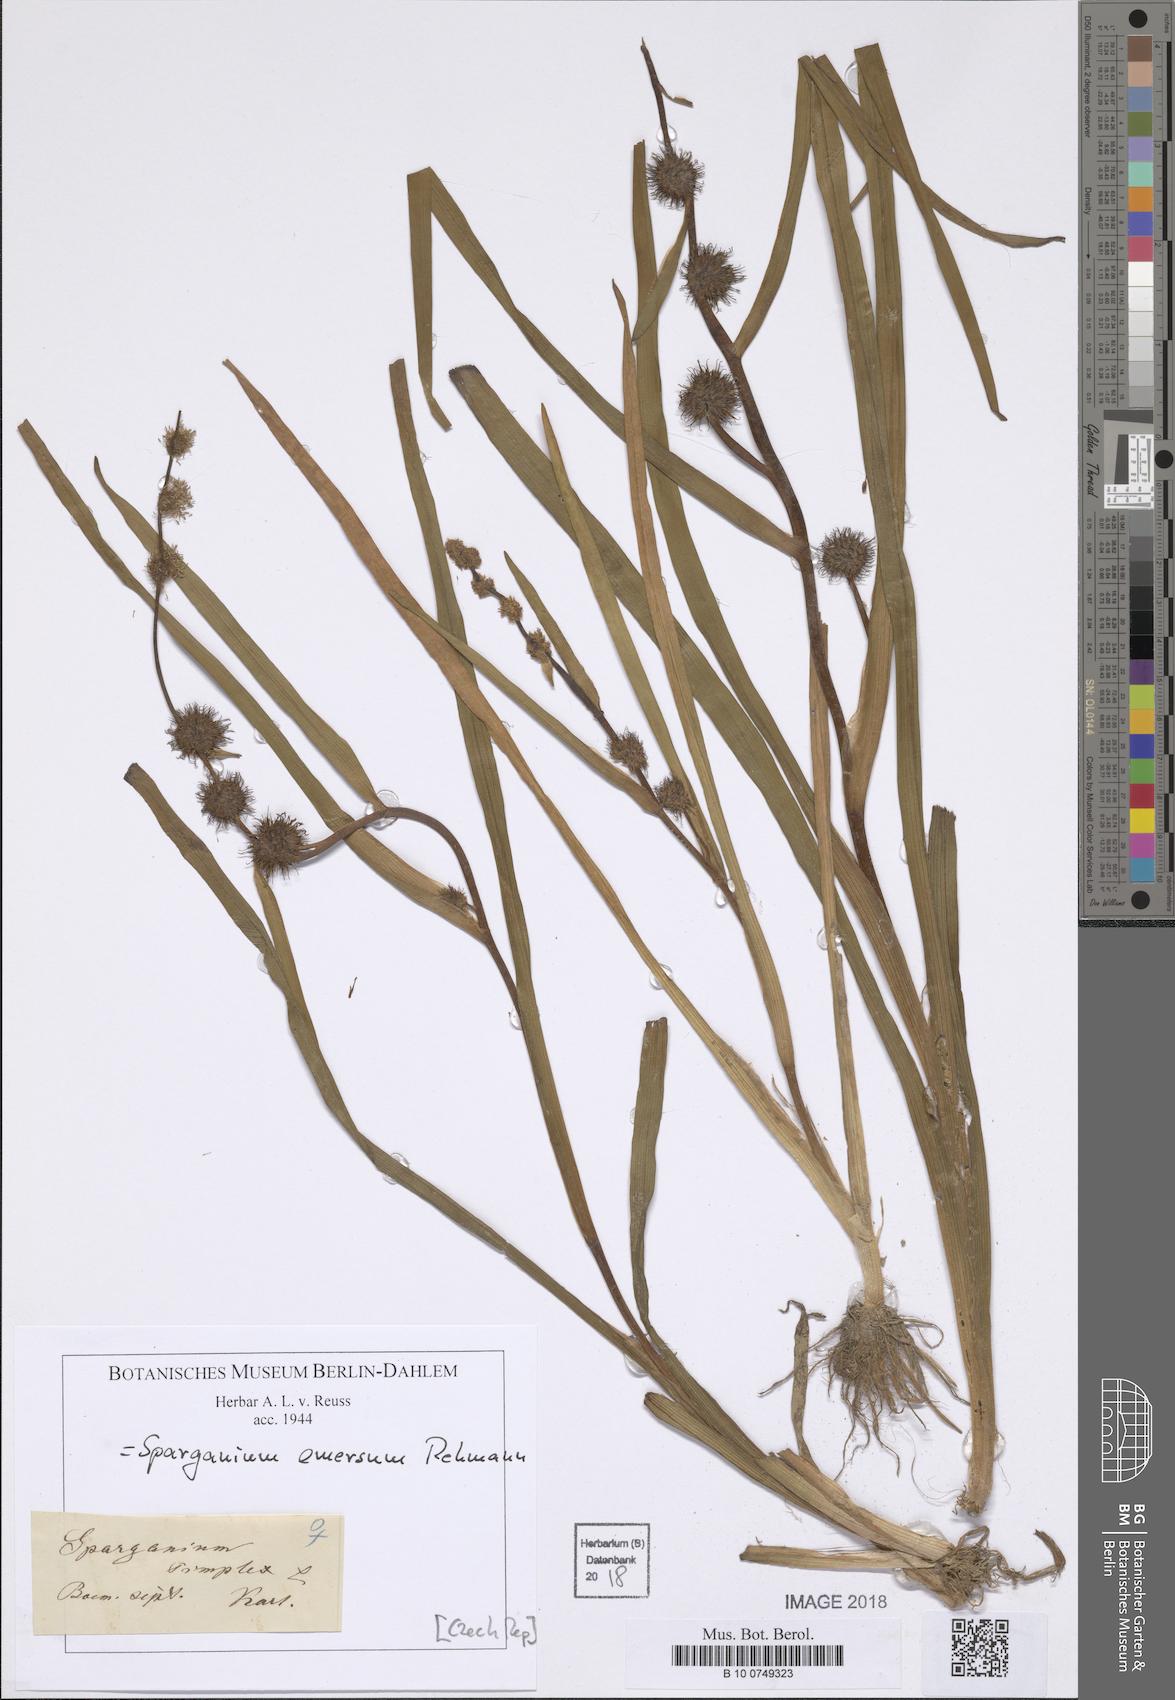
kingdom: Plantae
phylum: Tracheophyta
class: Liliopsida
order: Poales
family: Typhaceae
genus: Sparganium
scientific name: Sparganium emersum
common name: Unbranched bur-reed
